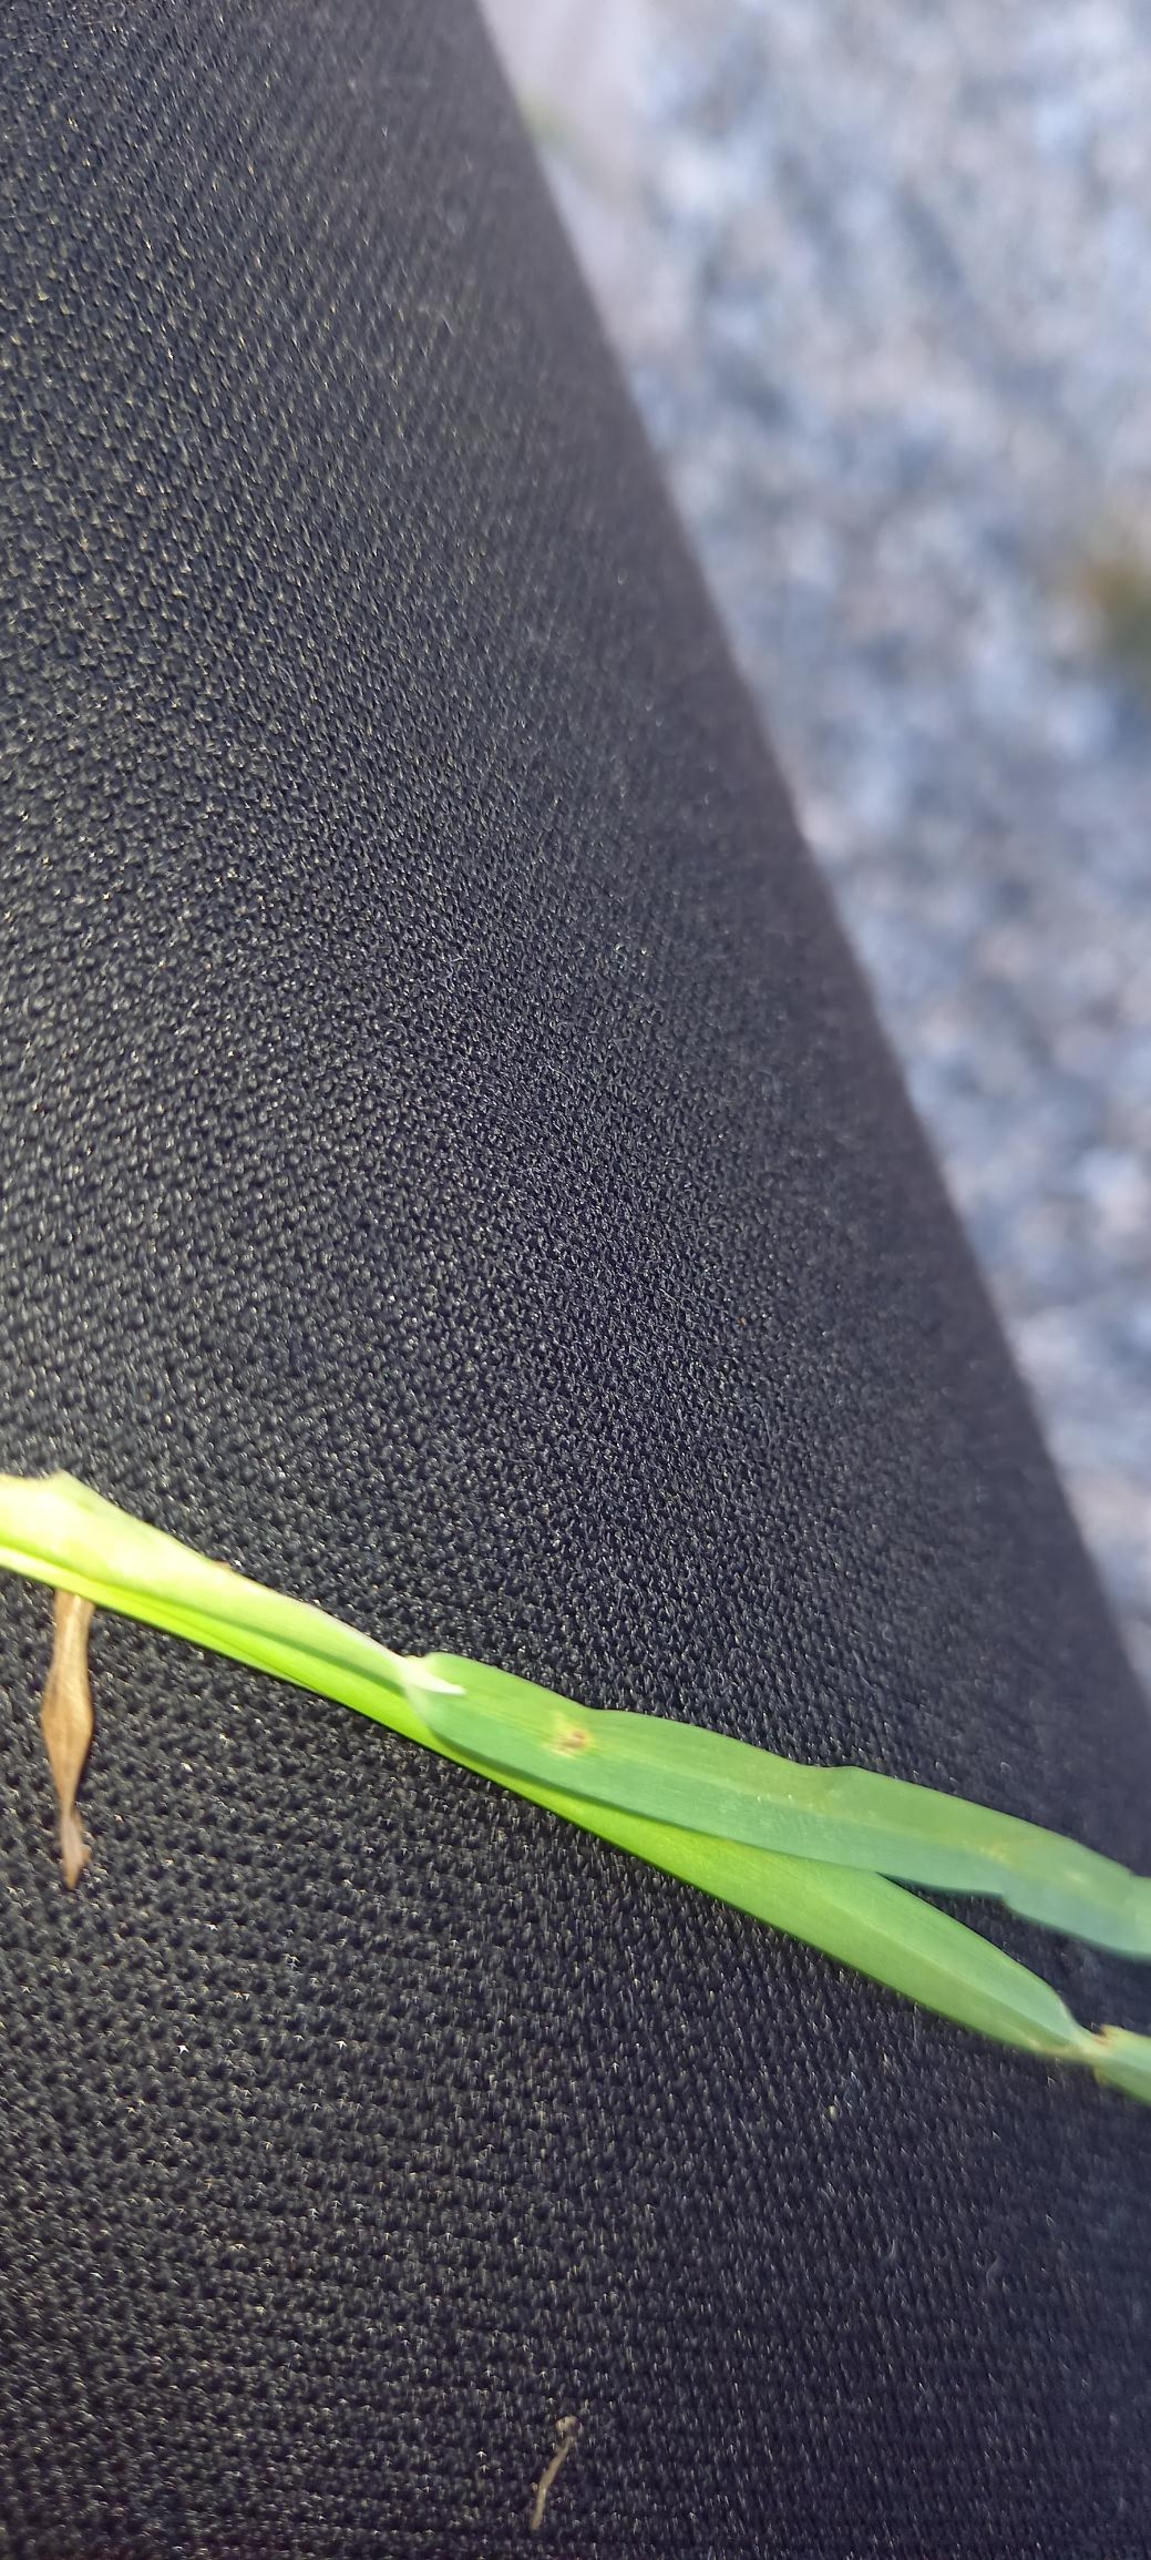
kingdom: Plantae
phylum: Tracheophyta
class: Liliopsida
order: Poales
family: Poaceae
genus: Dactylis
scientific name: Dactylis glomerata
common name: Almindelig hundegræs
